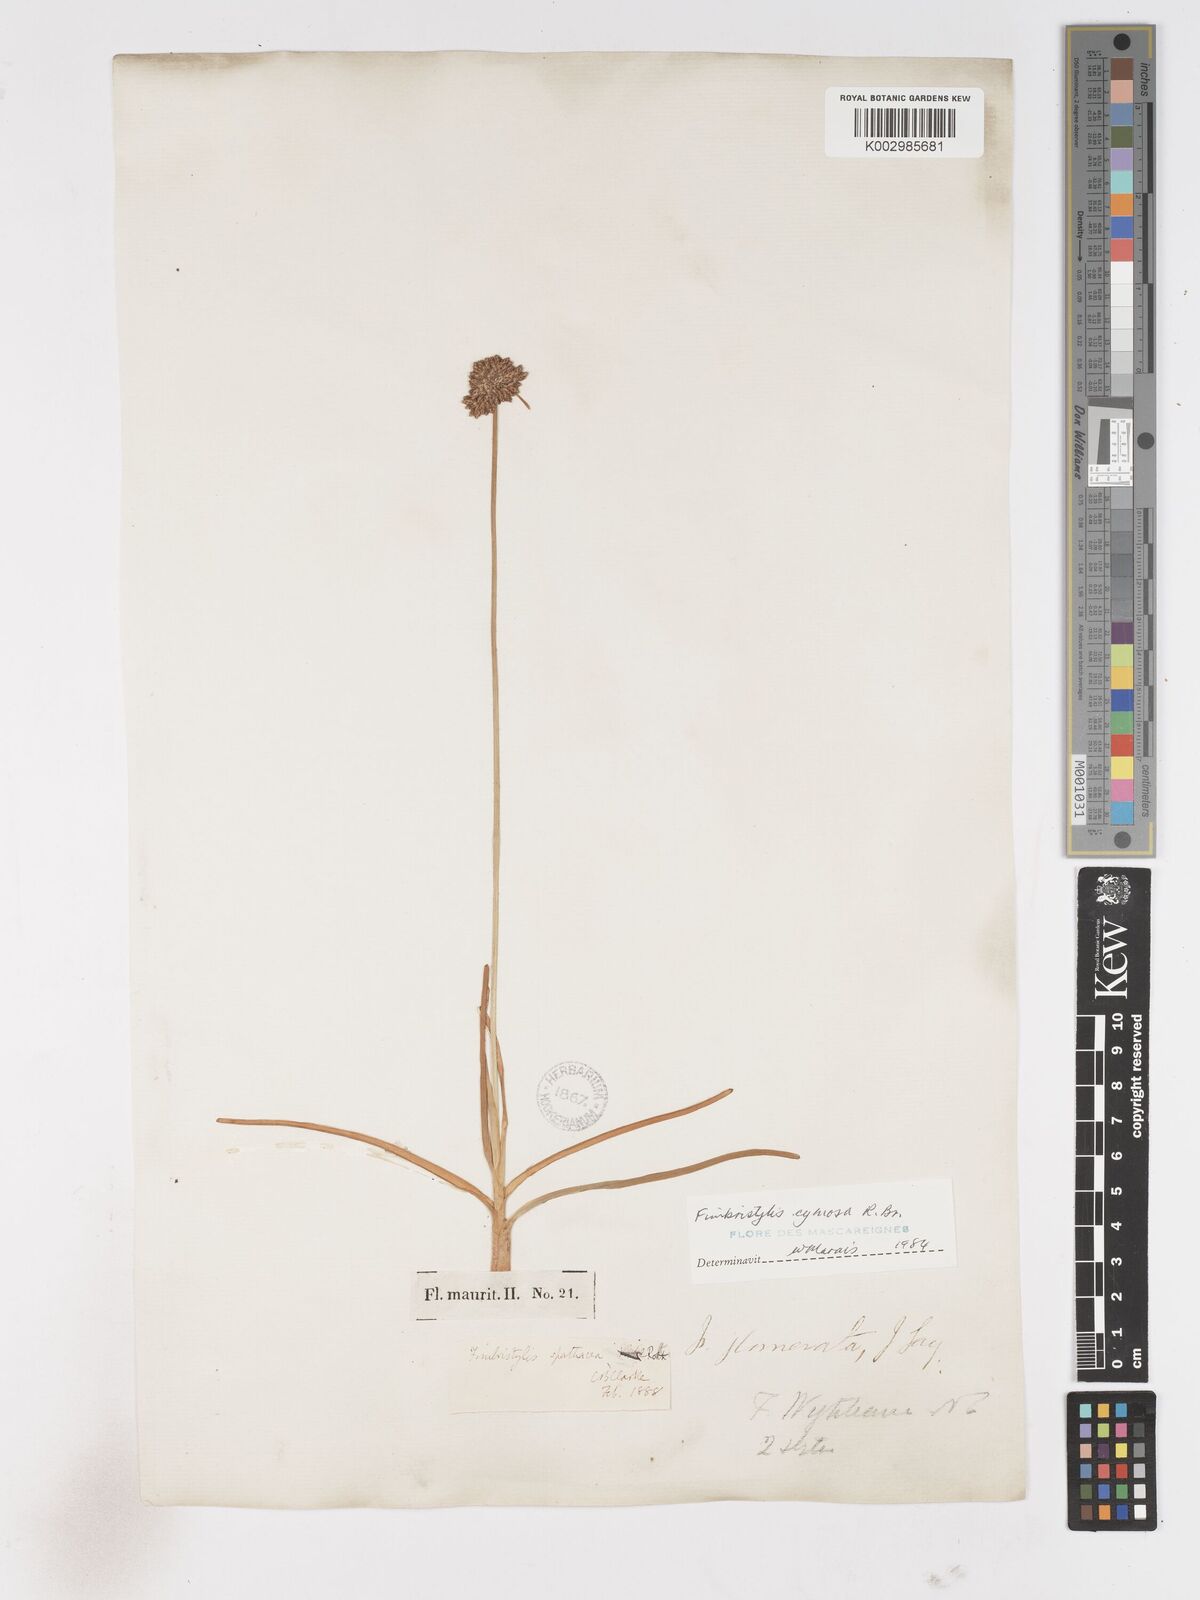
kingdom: Plantae
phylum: Tracheophyta
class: Liliopsida
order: Poales
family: Cyperaceae
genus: Fimbristylis
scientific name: Fimbristylis cymosa
